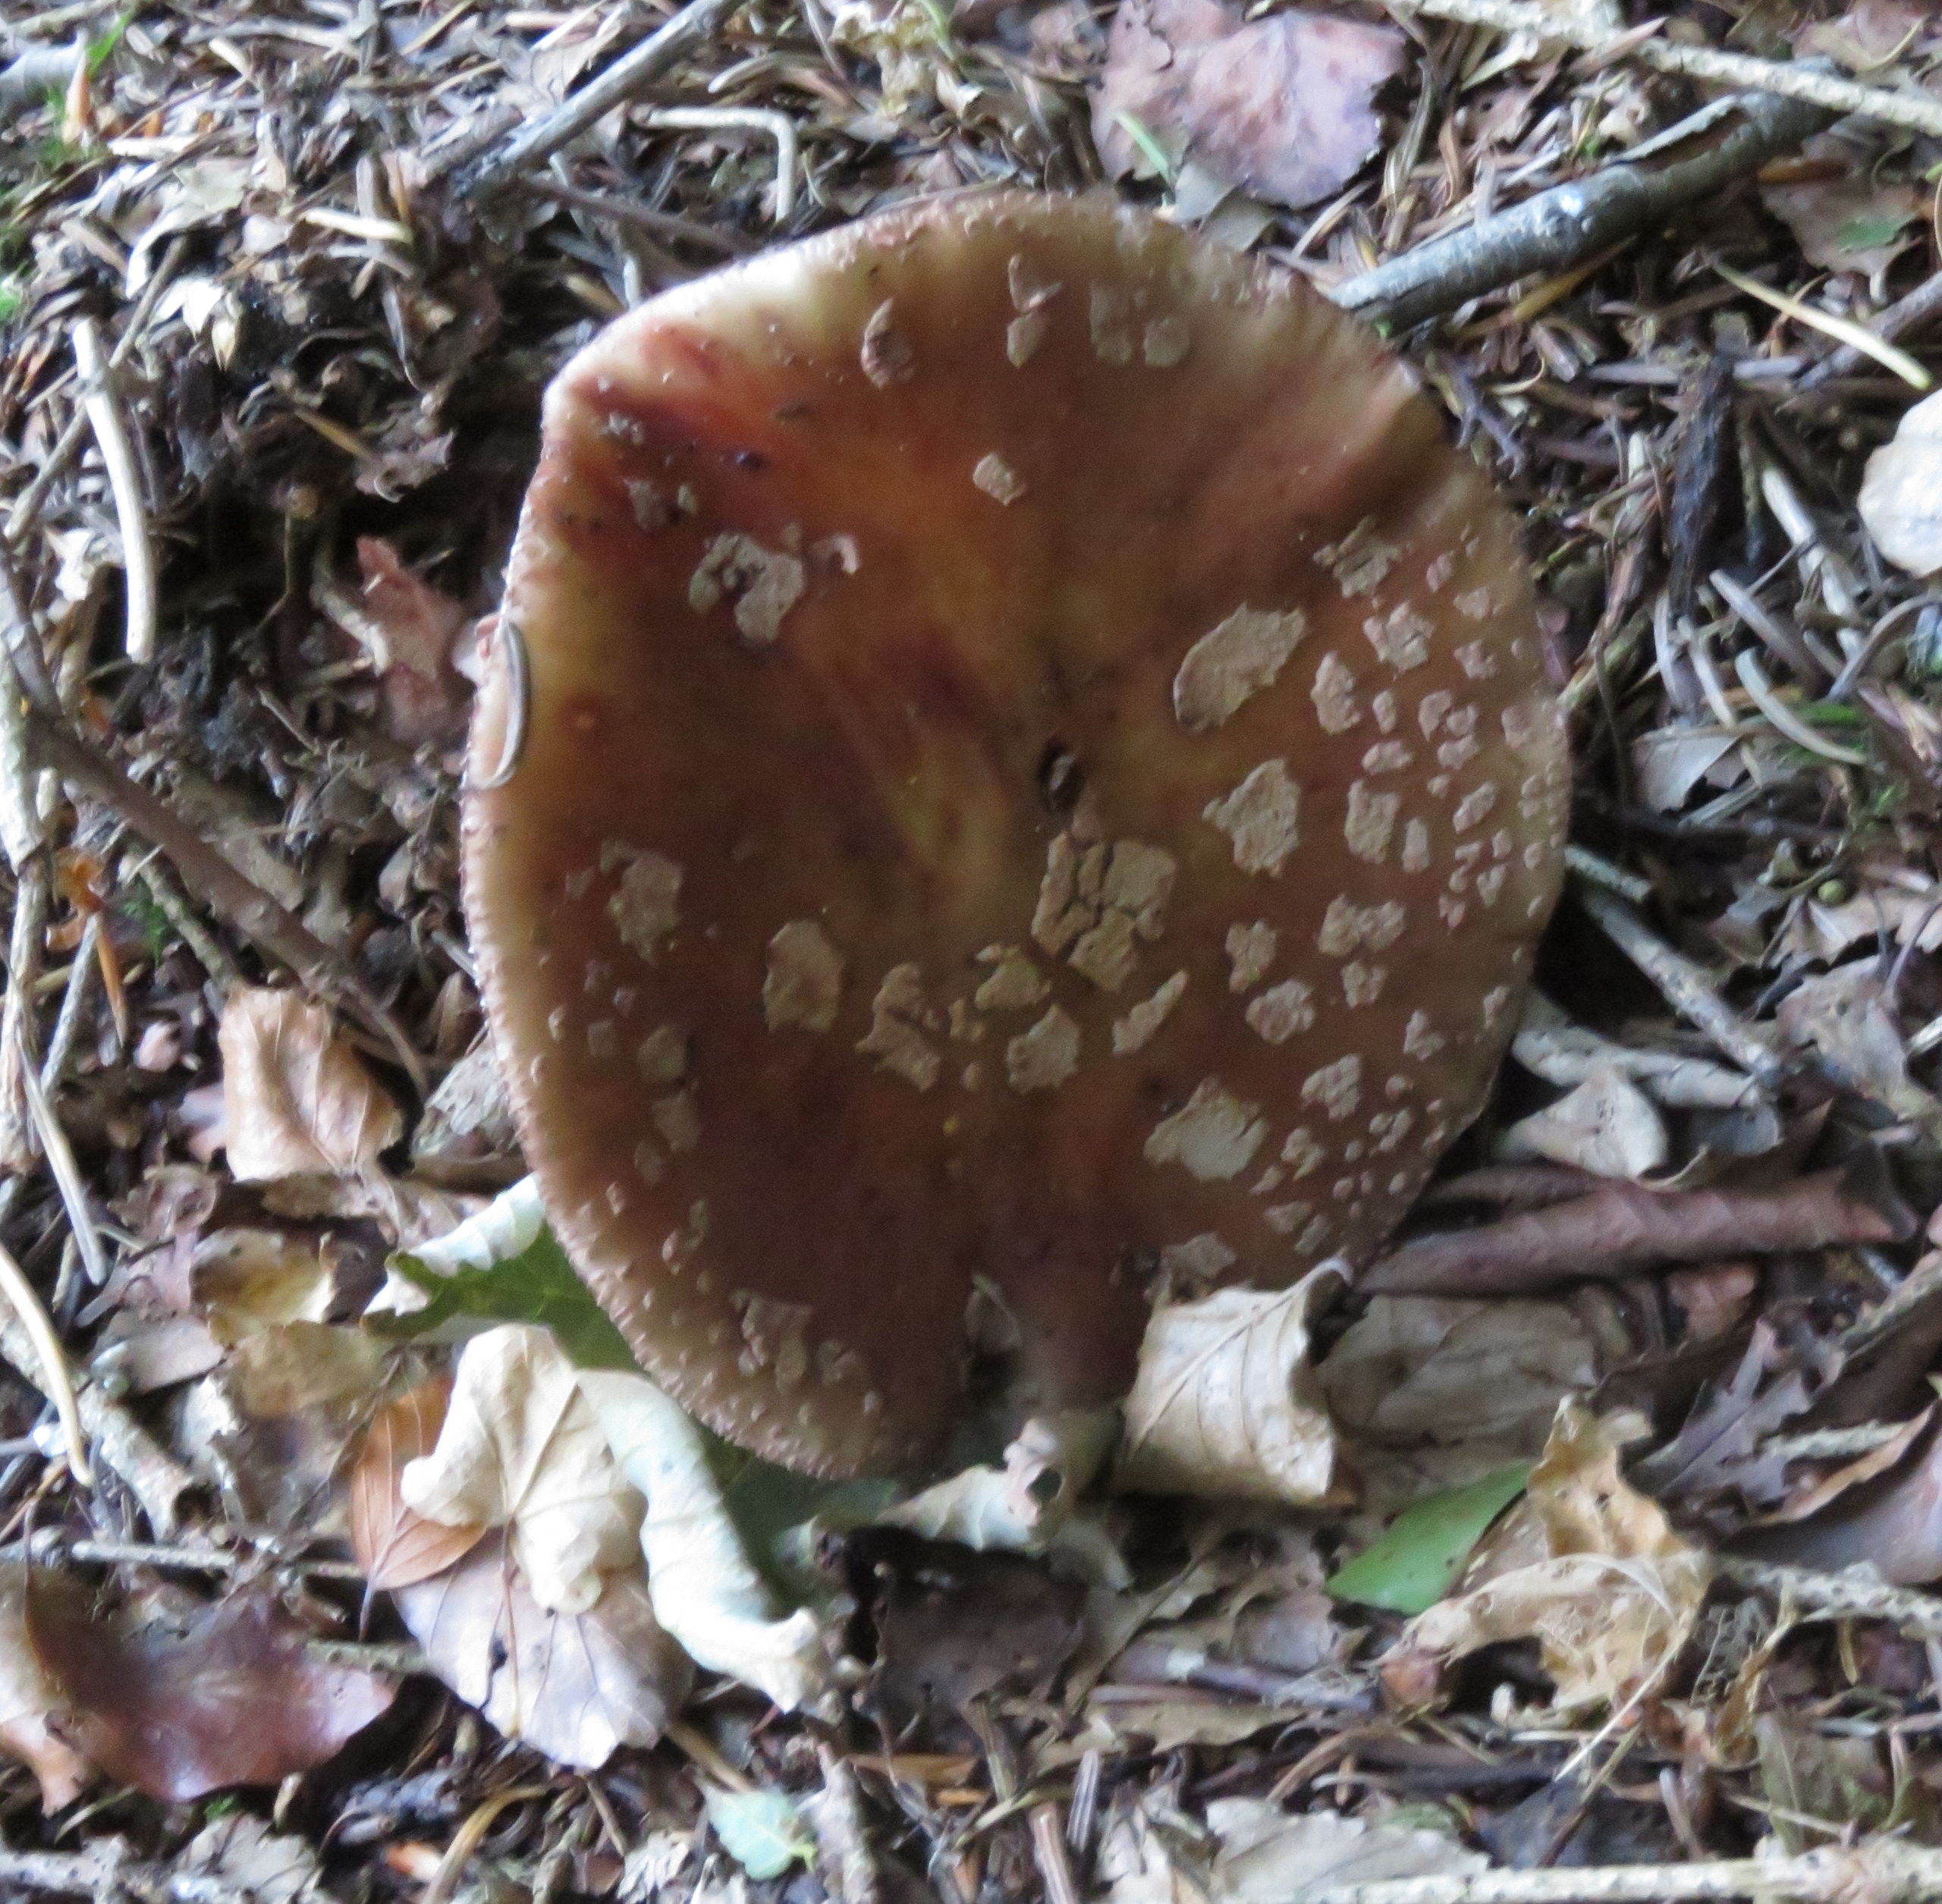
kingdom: Fungi
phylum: Basidiomycota
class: Agaricomycetes
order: Agaricales
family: Amanitaceae
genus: Amanita
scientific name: Amanita rubescens
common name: Rødmende fluesvamp
